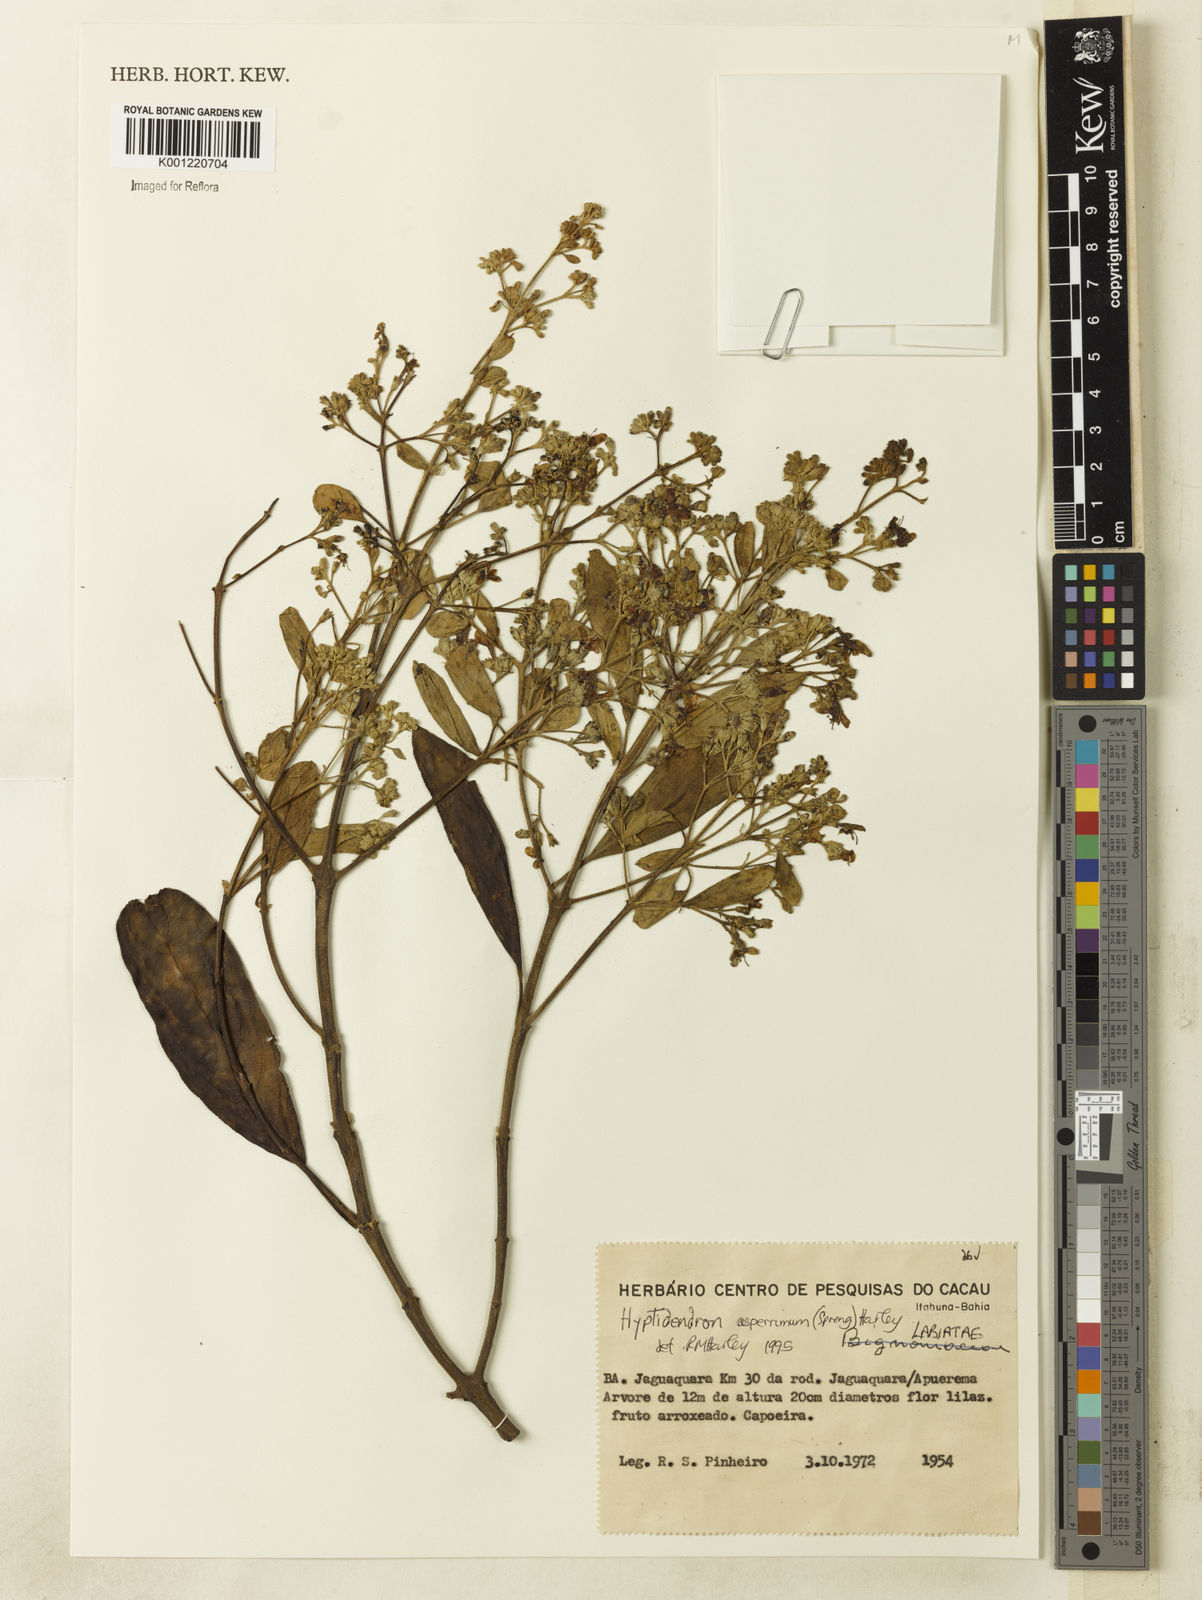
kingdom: Plantae
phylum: Tracheophyta
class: Magnoliopsida
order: Lamiales
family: Lamiaceae
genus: Hyptidendron
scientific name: Hyptidendron asperrimum
